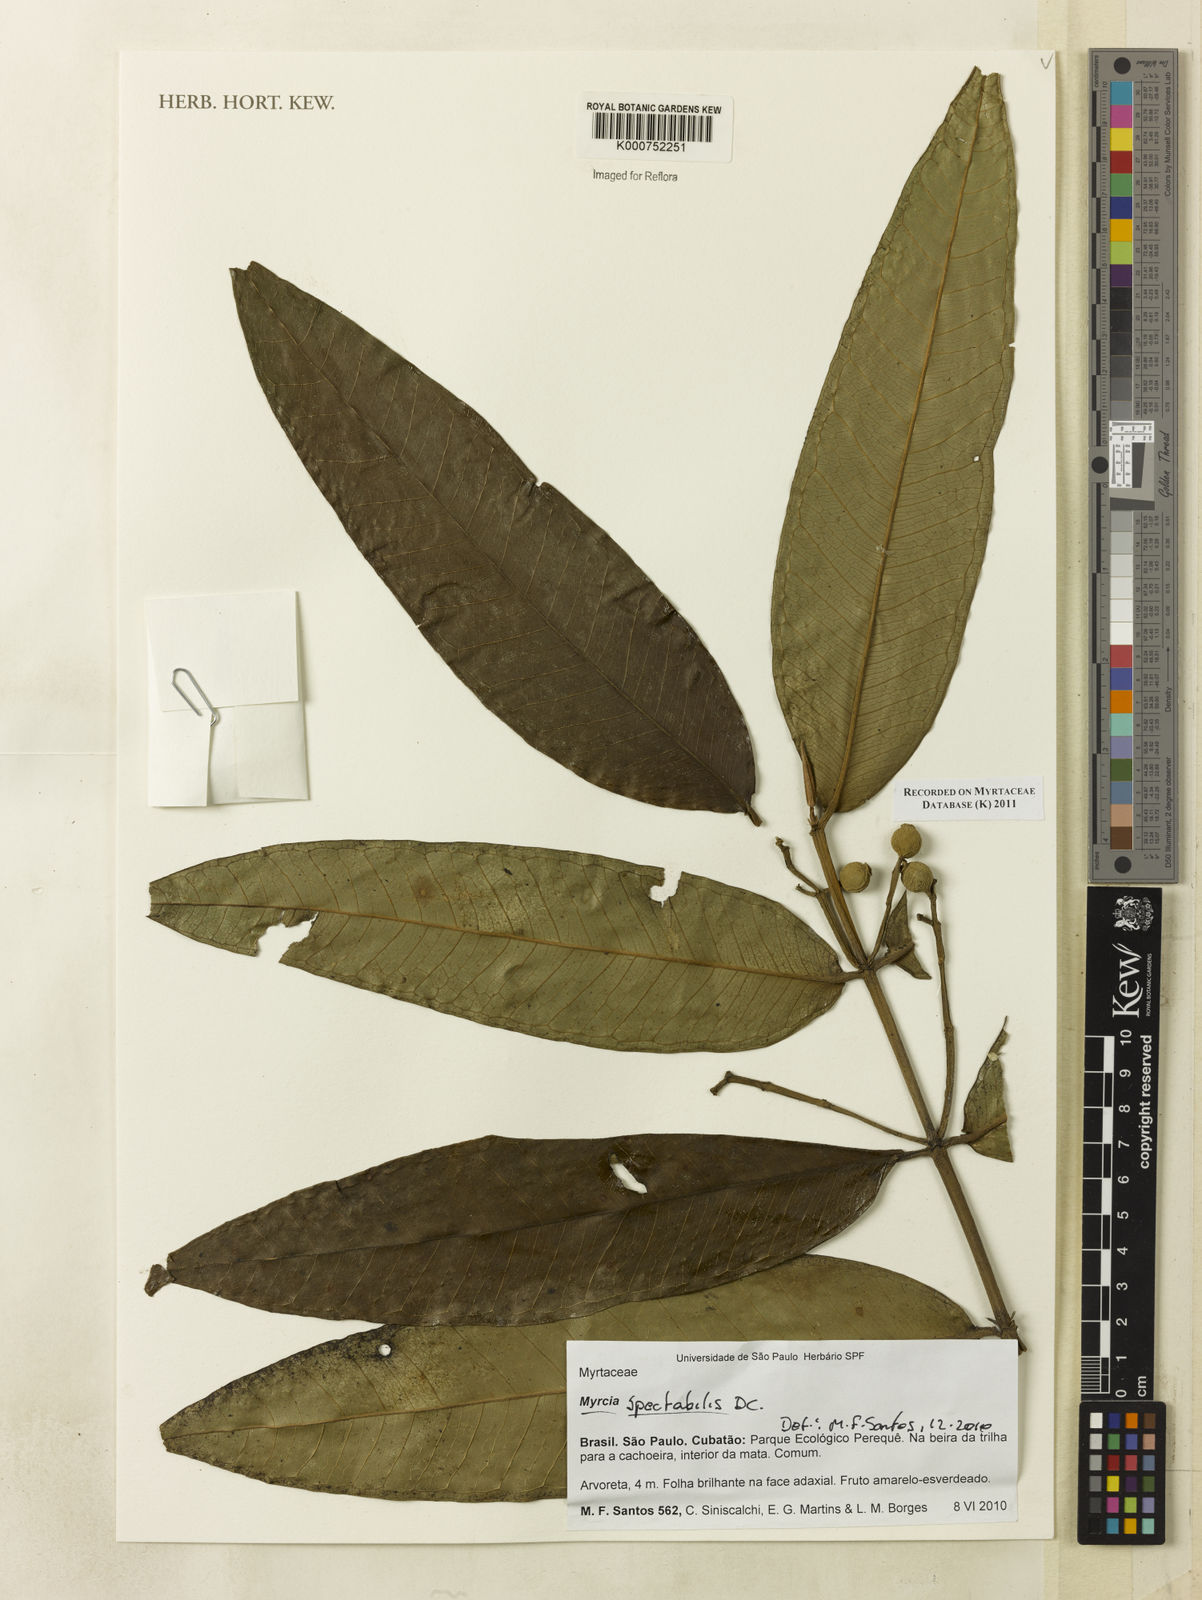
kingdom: Plantae
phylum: Tracheophyta
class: Magnoliopsida
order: Myrtales
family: Myrtaceae
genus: Myrcia
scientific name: Myrcia spectabilis
